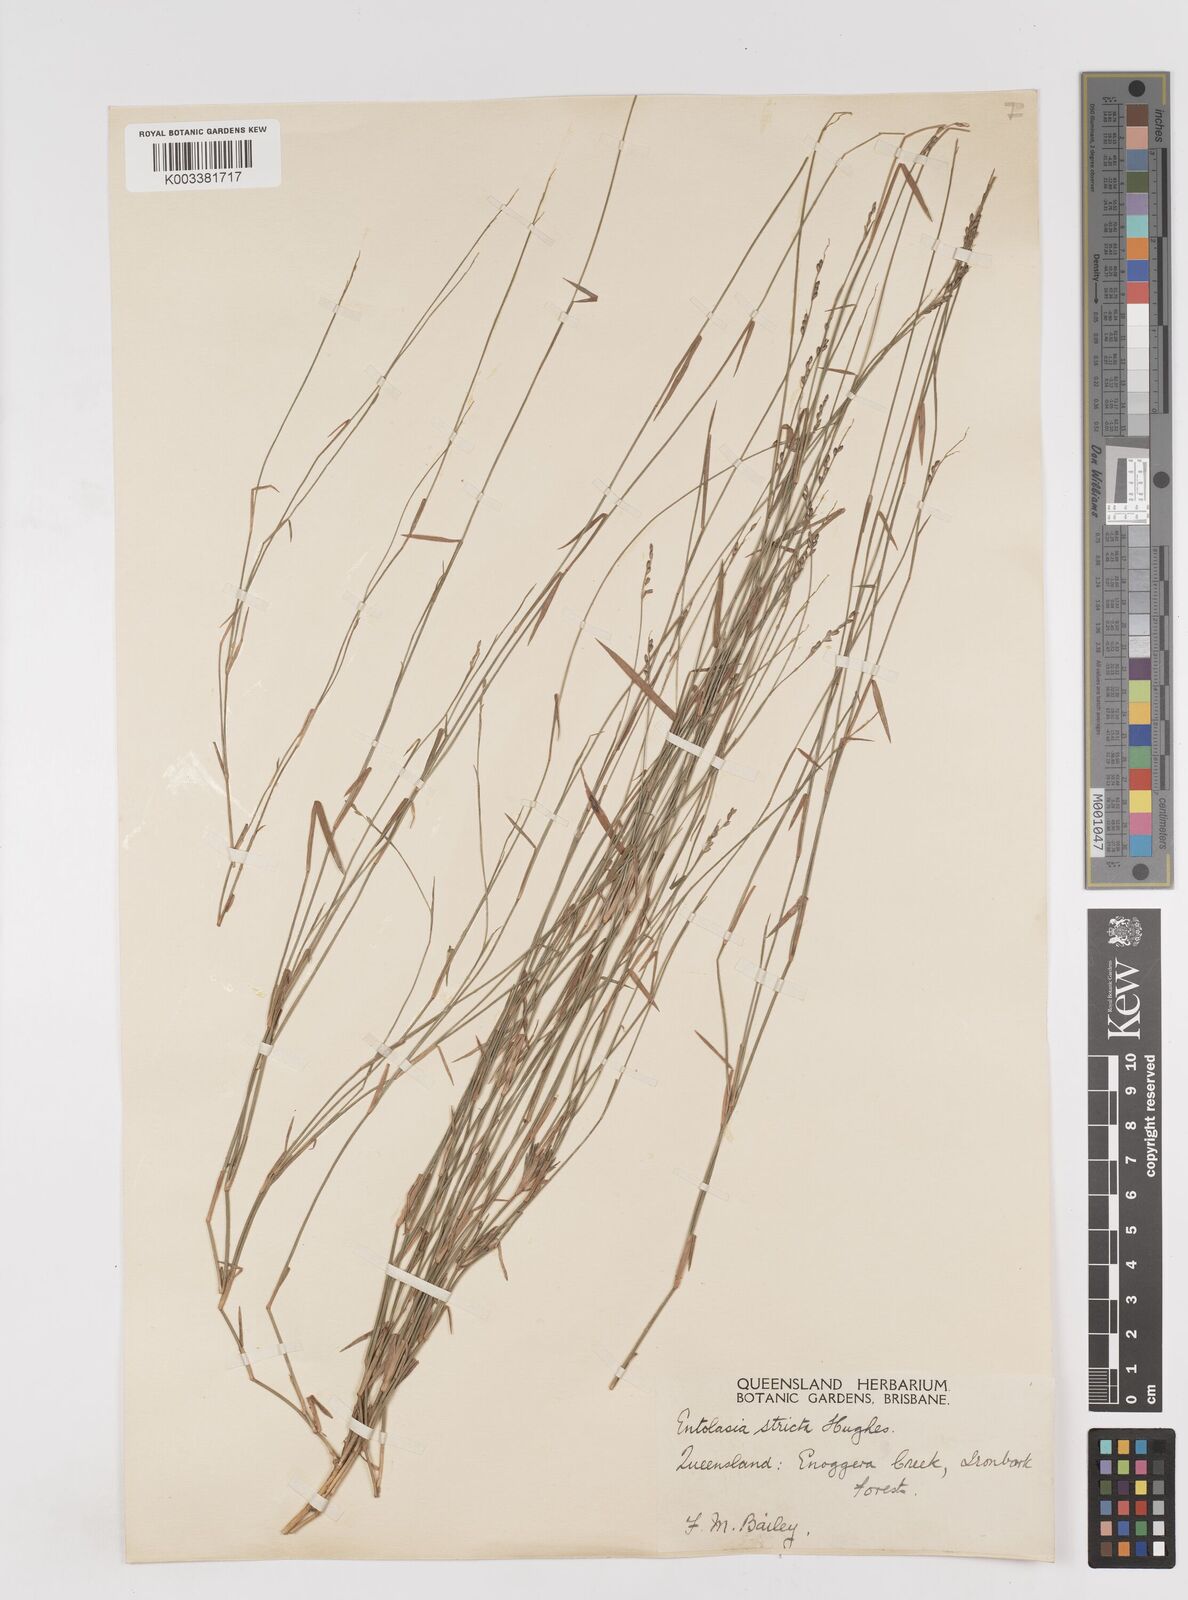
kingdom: Plantae
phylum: Tracheophyta
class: Liliopsida
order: Poales
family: Poaceae
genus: Entolasia
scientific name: Entolasia stricta
